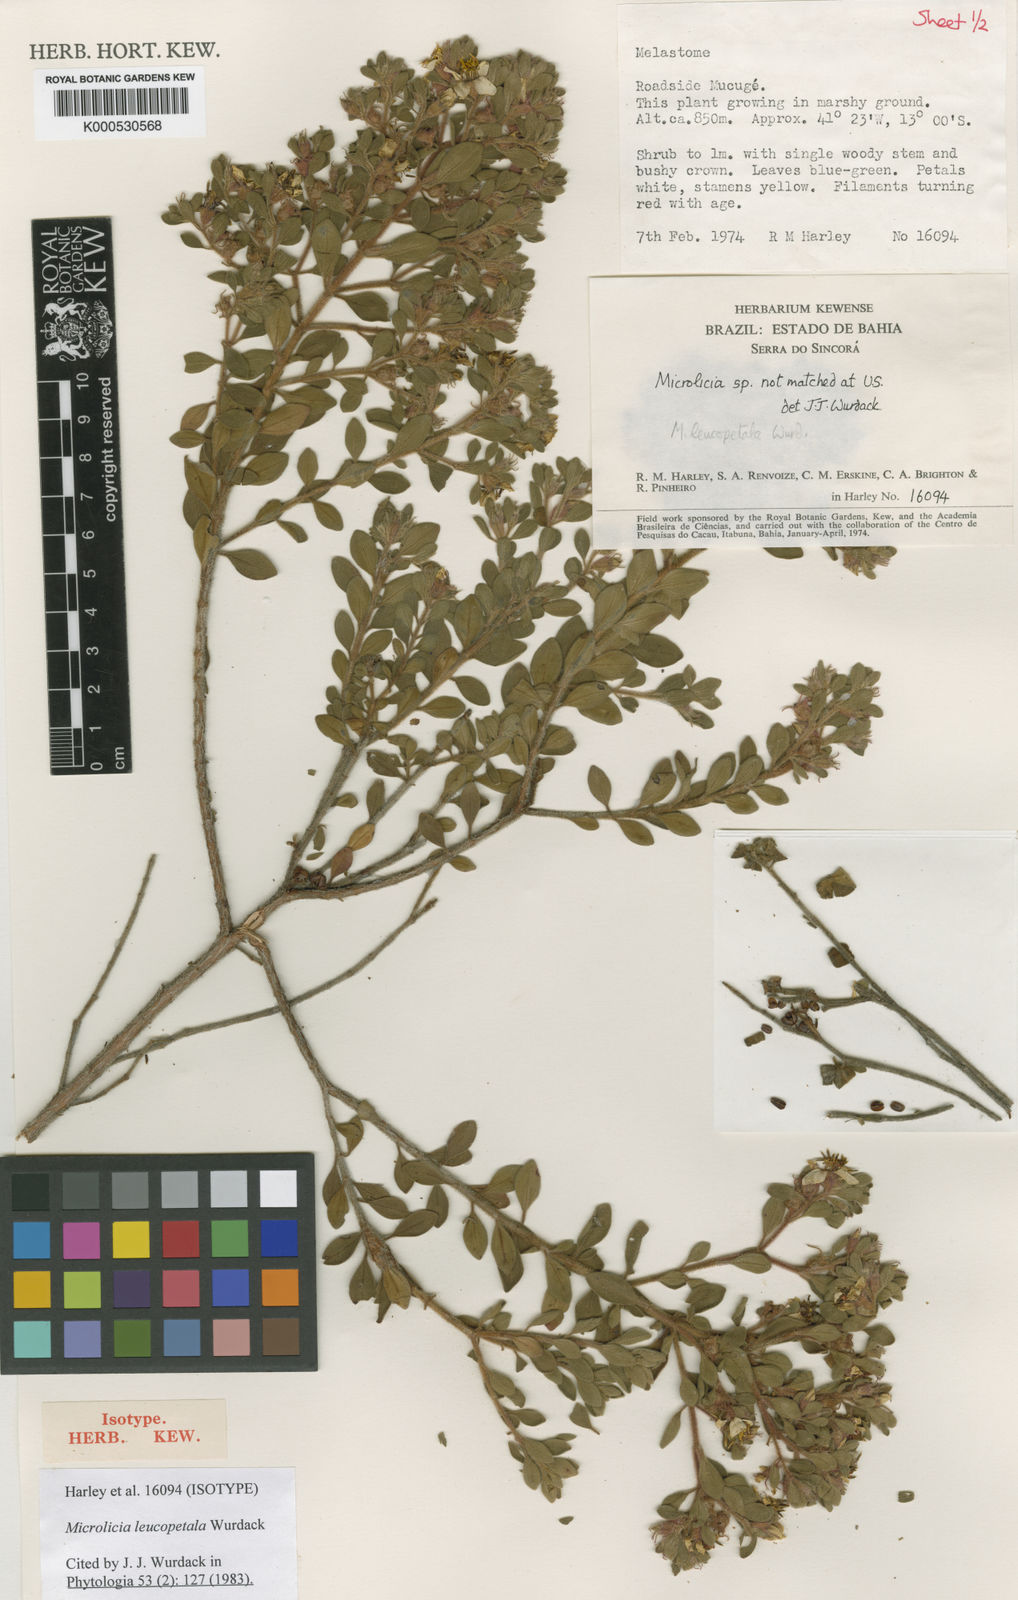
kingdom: Plantae
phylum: Tracheophyta
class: Magnoliopsida
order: Myrtales
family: Melastomataceae
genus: Microlicia
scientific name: Microlicia leucopetala
